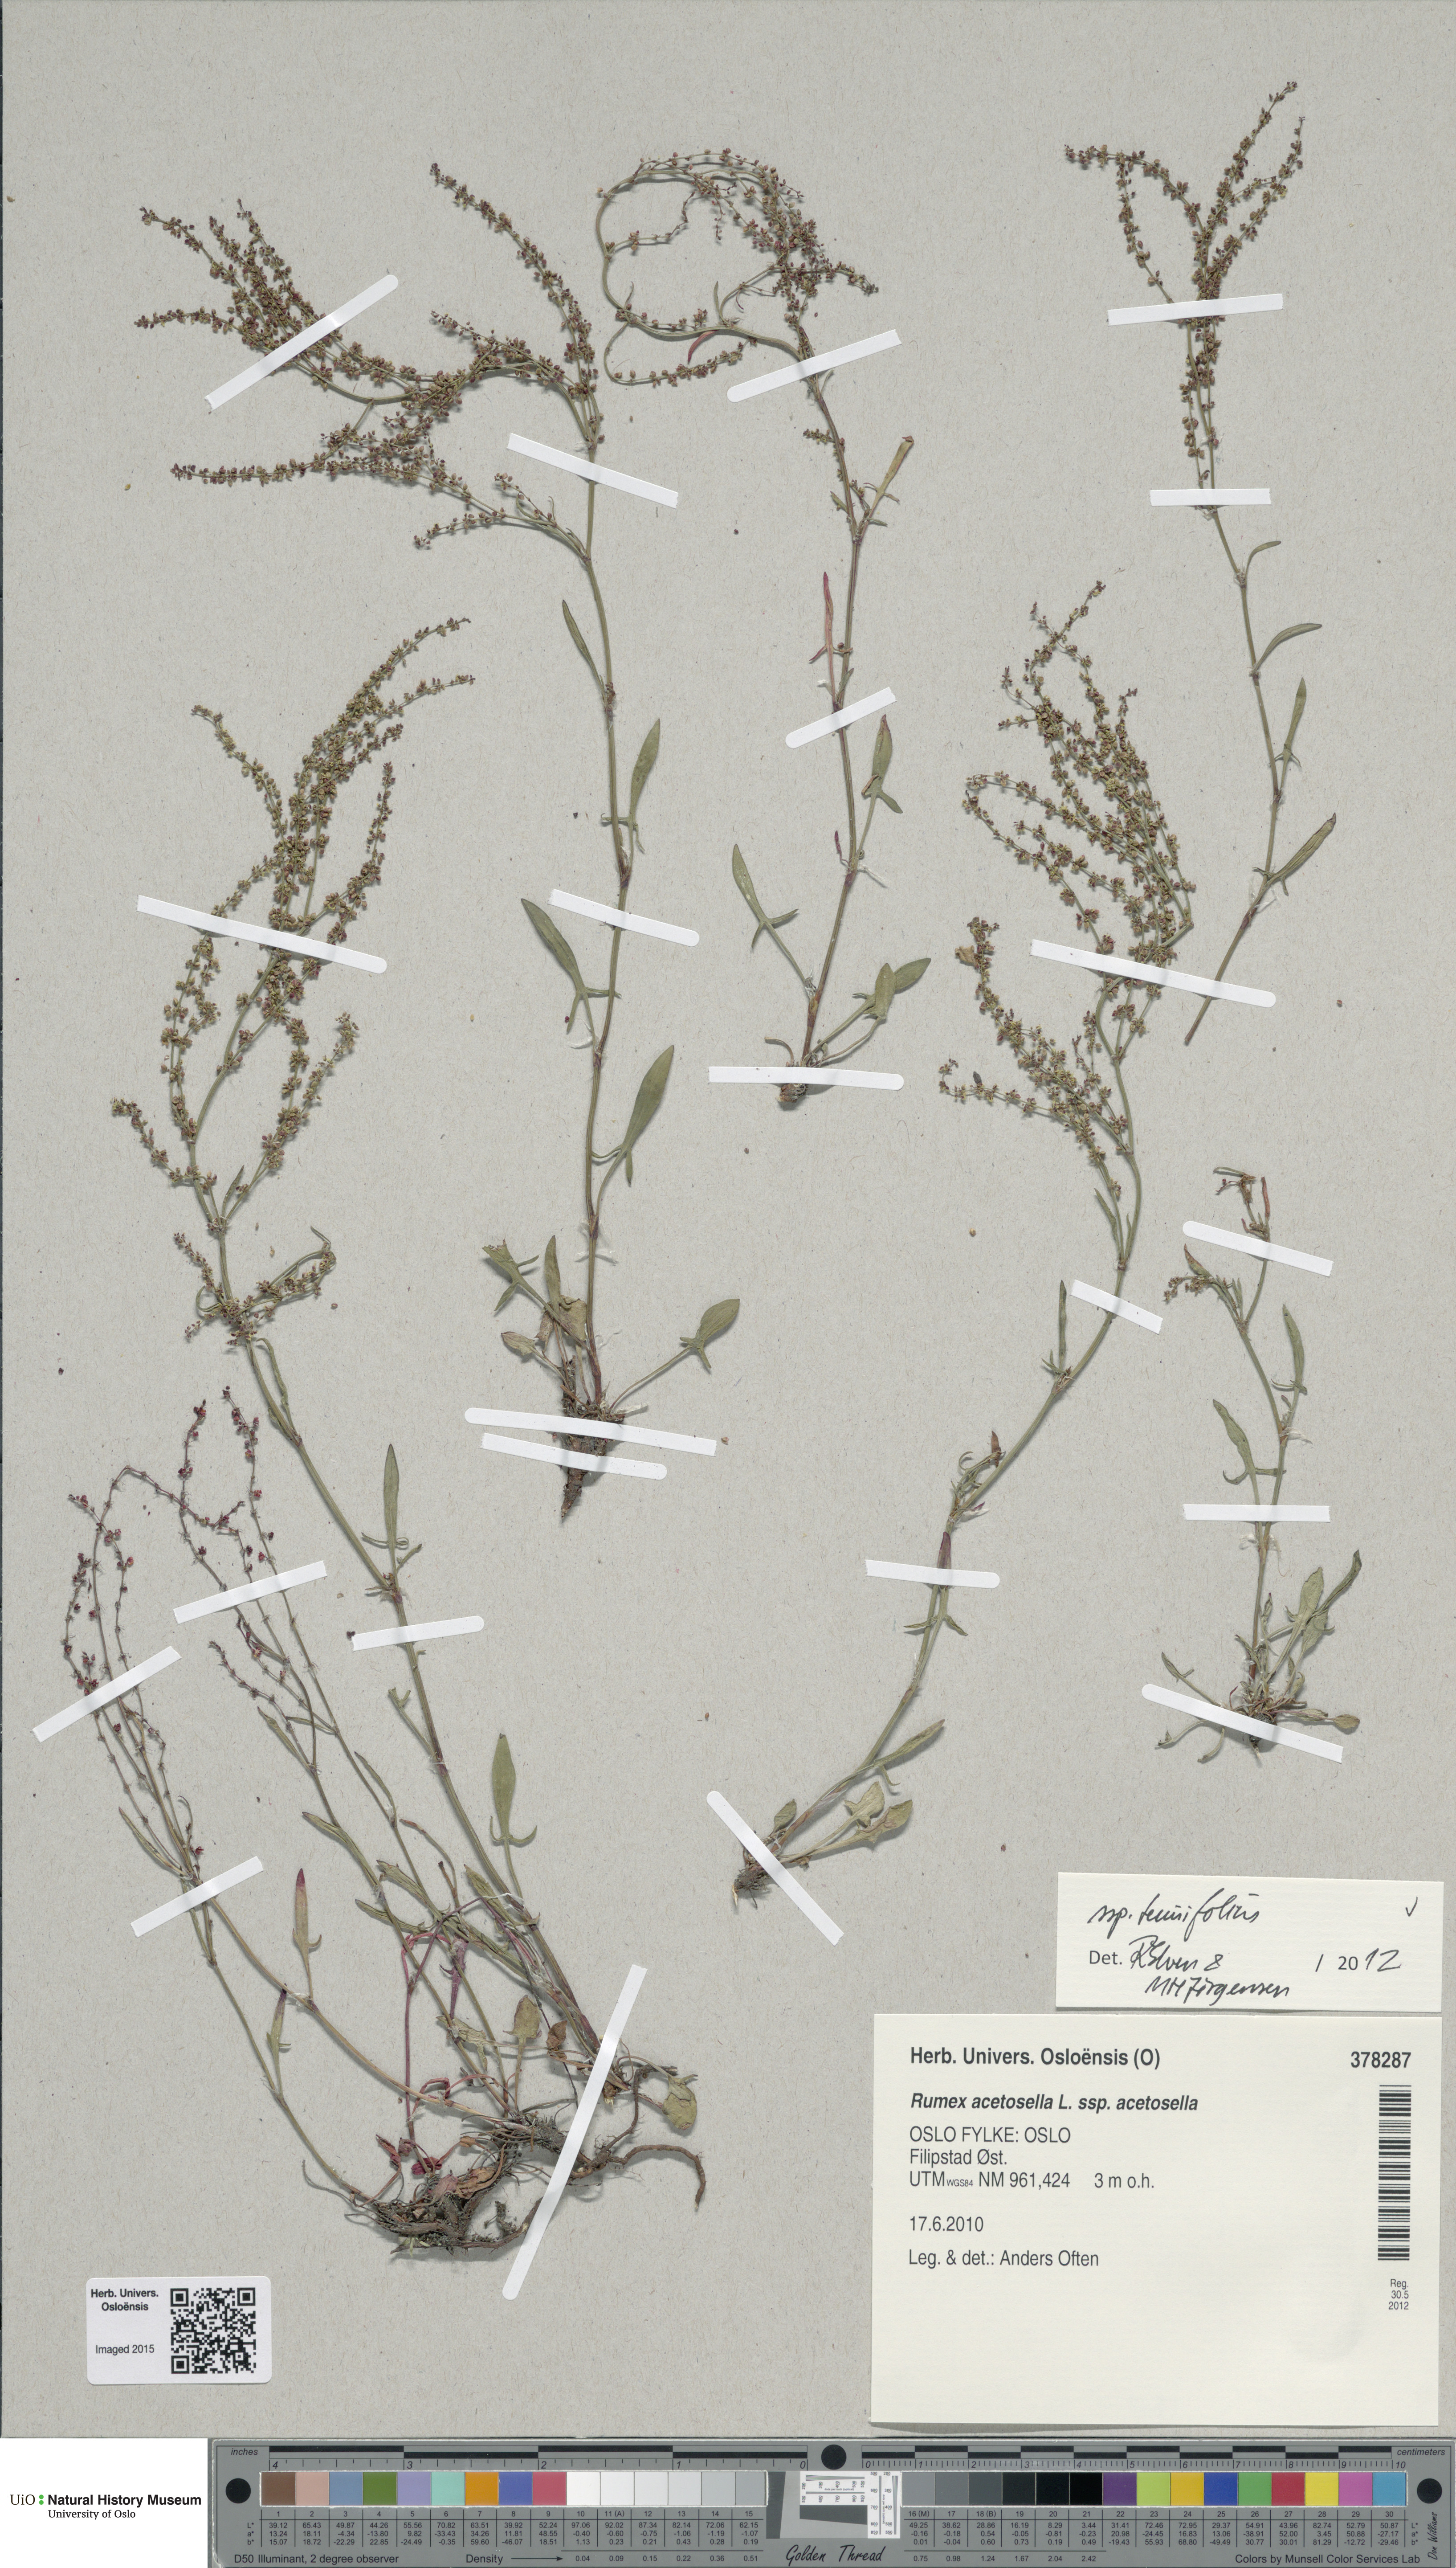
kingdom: Plantae
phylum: Tracheophyta
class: Magnoliopsida
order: Caryophyllales
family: Polygonaceae
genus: Rumex
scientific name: Rumex acetosella
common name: Common sheep sorrel
